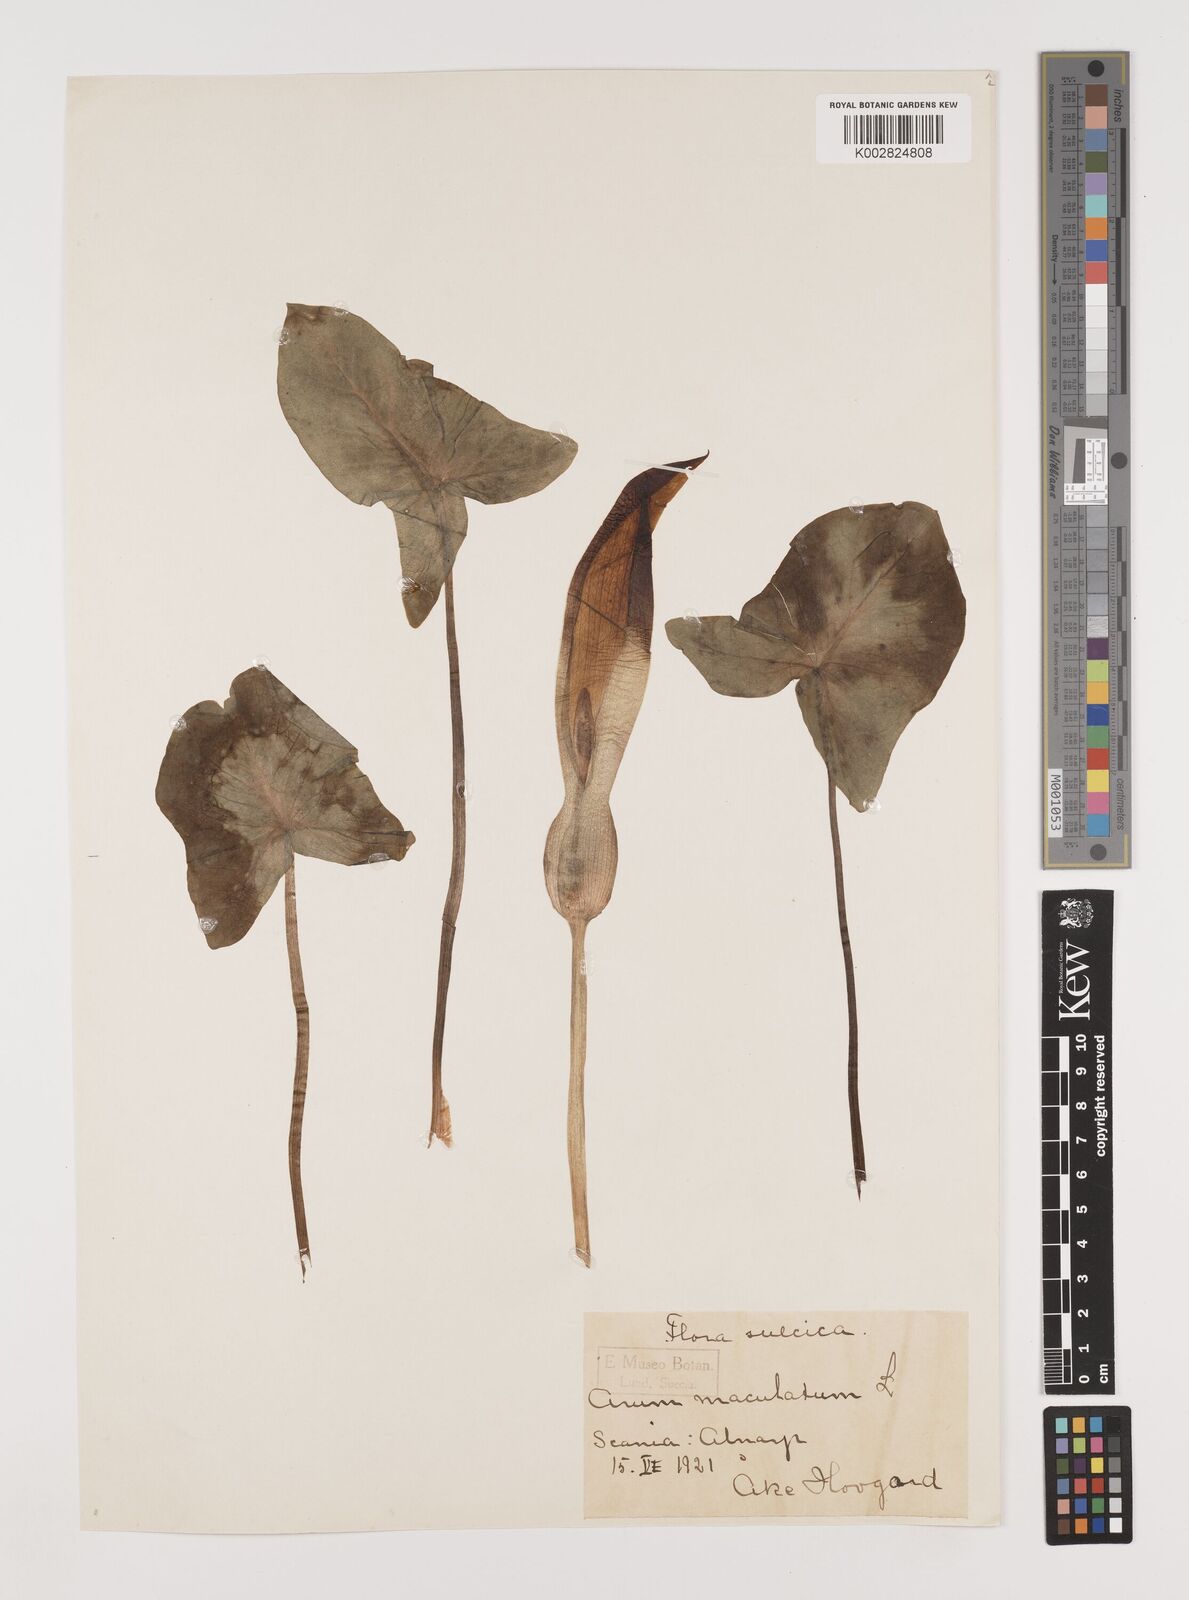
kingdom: Plantae
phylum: Tracheophyta
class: Liliopsida
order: Alismatales
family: Araceae
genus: Arum
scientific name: Arum maculatum
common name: Lords-and-ladies
